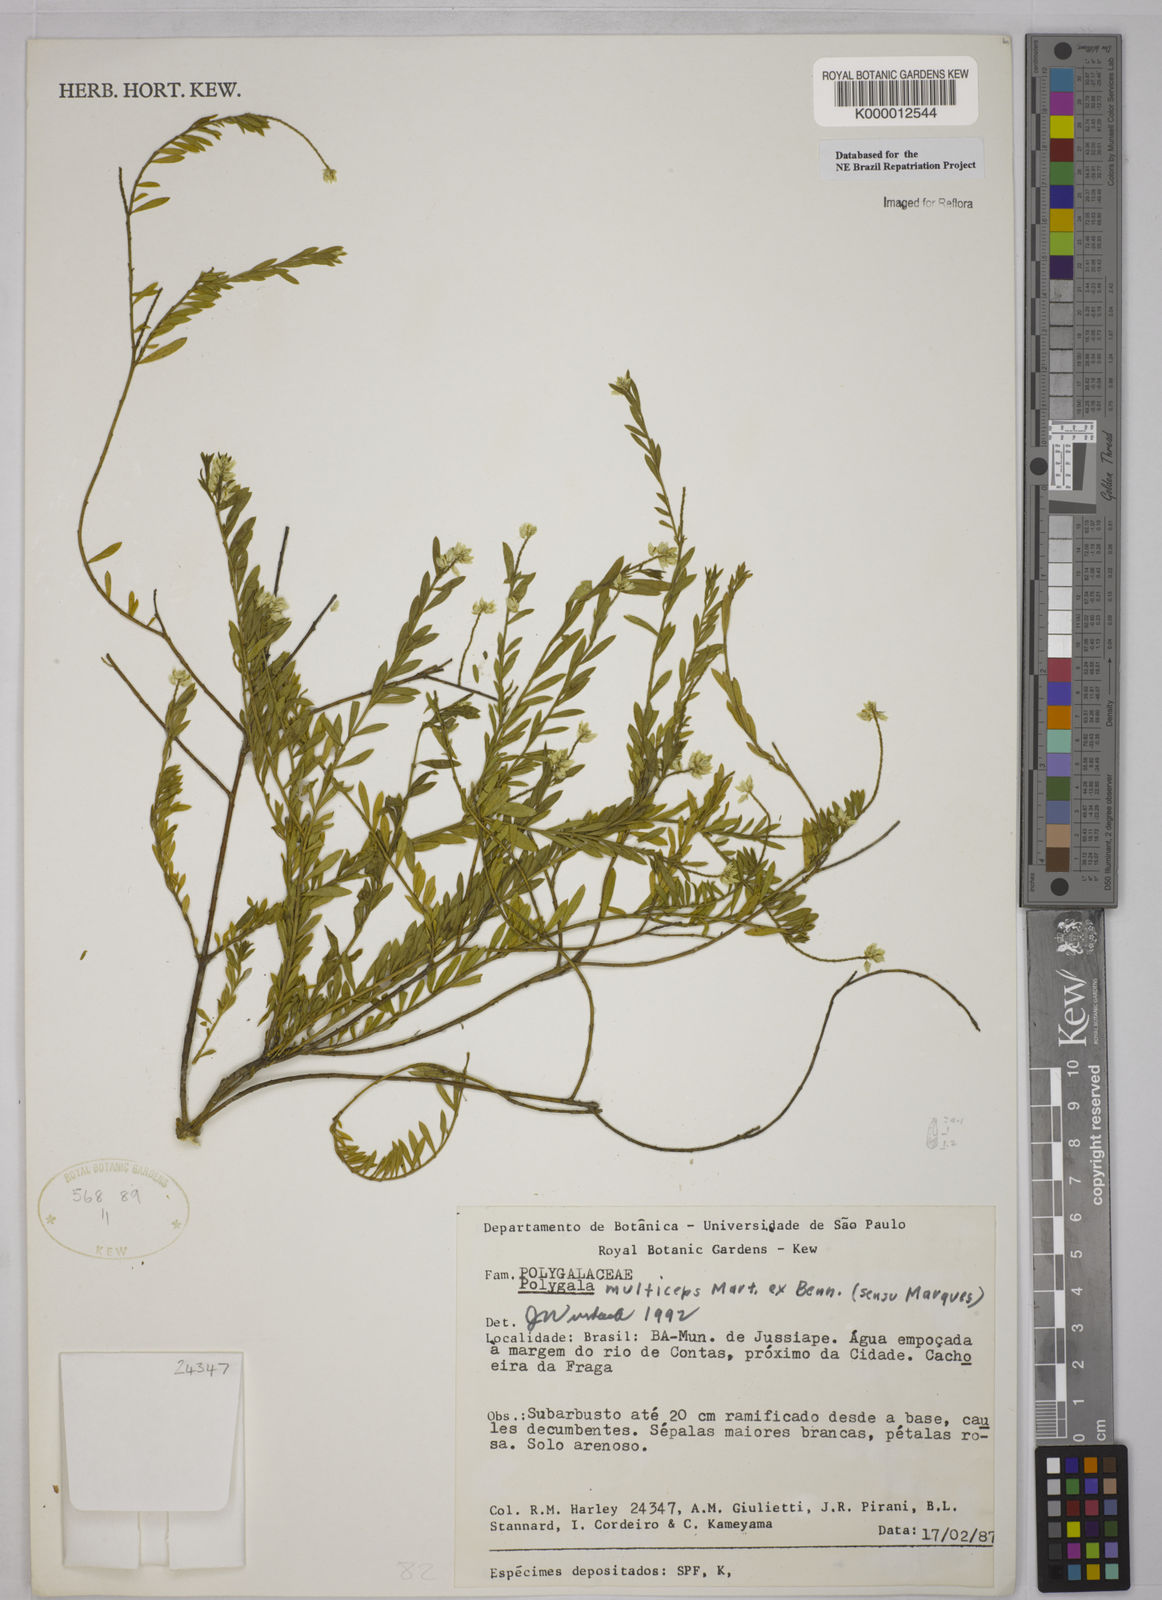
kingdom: Plantae
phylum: Tracheophyta
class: Magnoliopsida
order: Fabales
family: Polygalaceae
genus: Polygala
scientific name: Polygala
